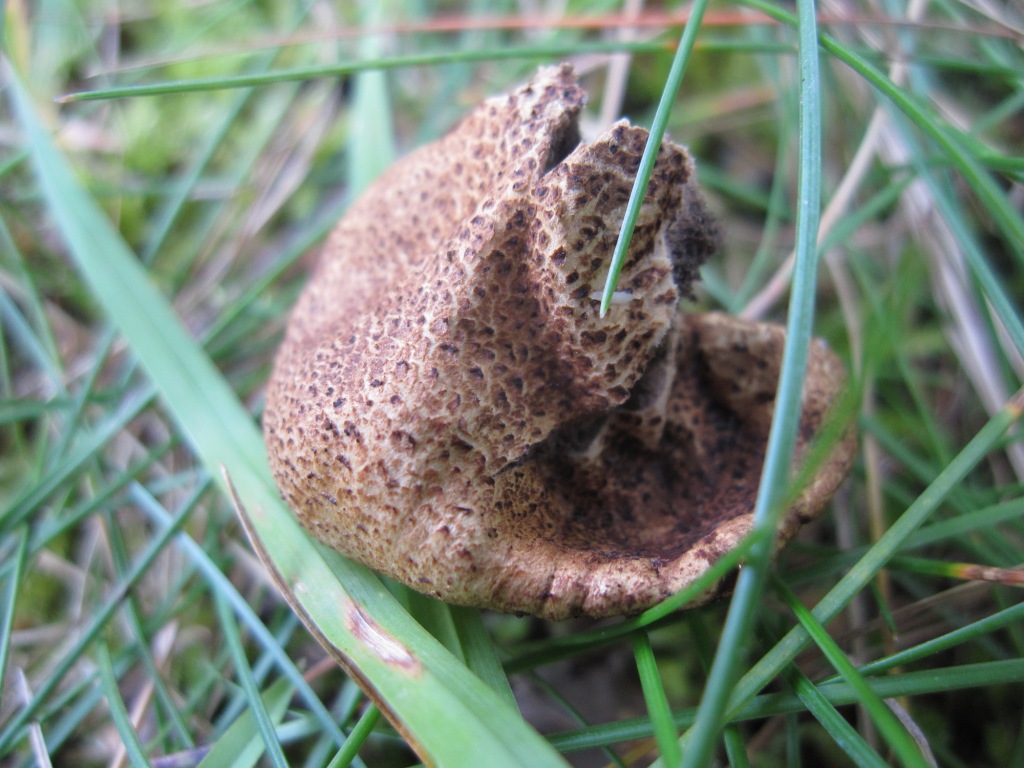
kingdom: Fungi
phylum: Basidiomycota
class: Agaricomycetes
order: Boletales
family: Sclerodermataceae
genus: Scleroderma
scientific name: Scleroderma areolatum
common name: plettet bruskbold
